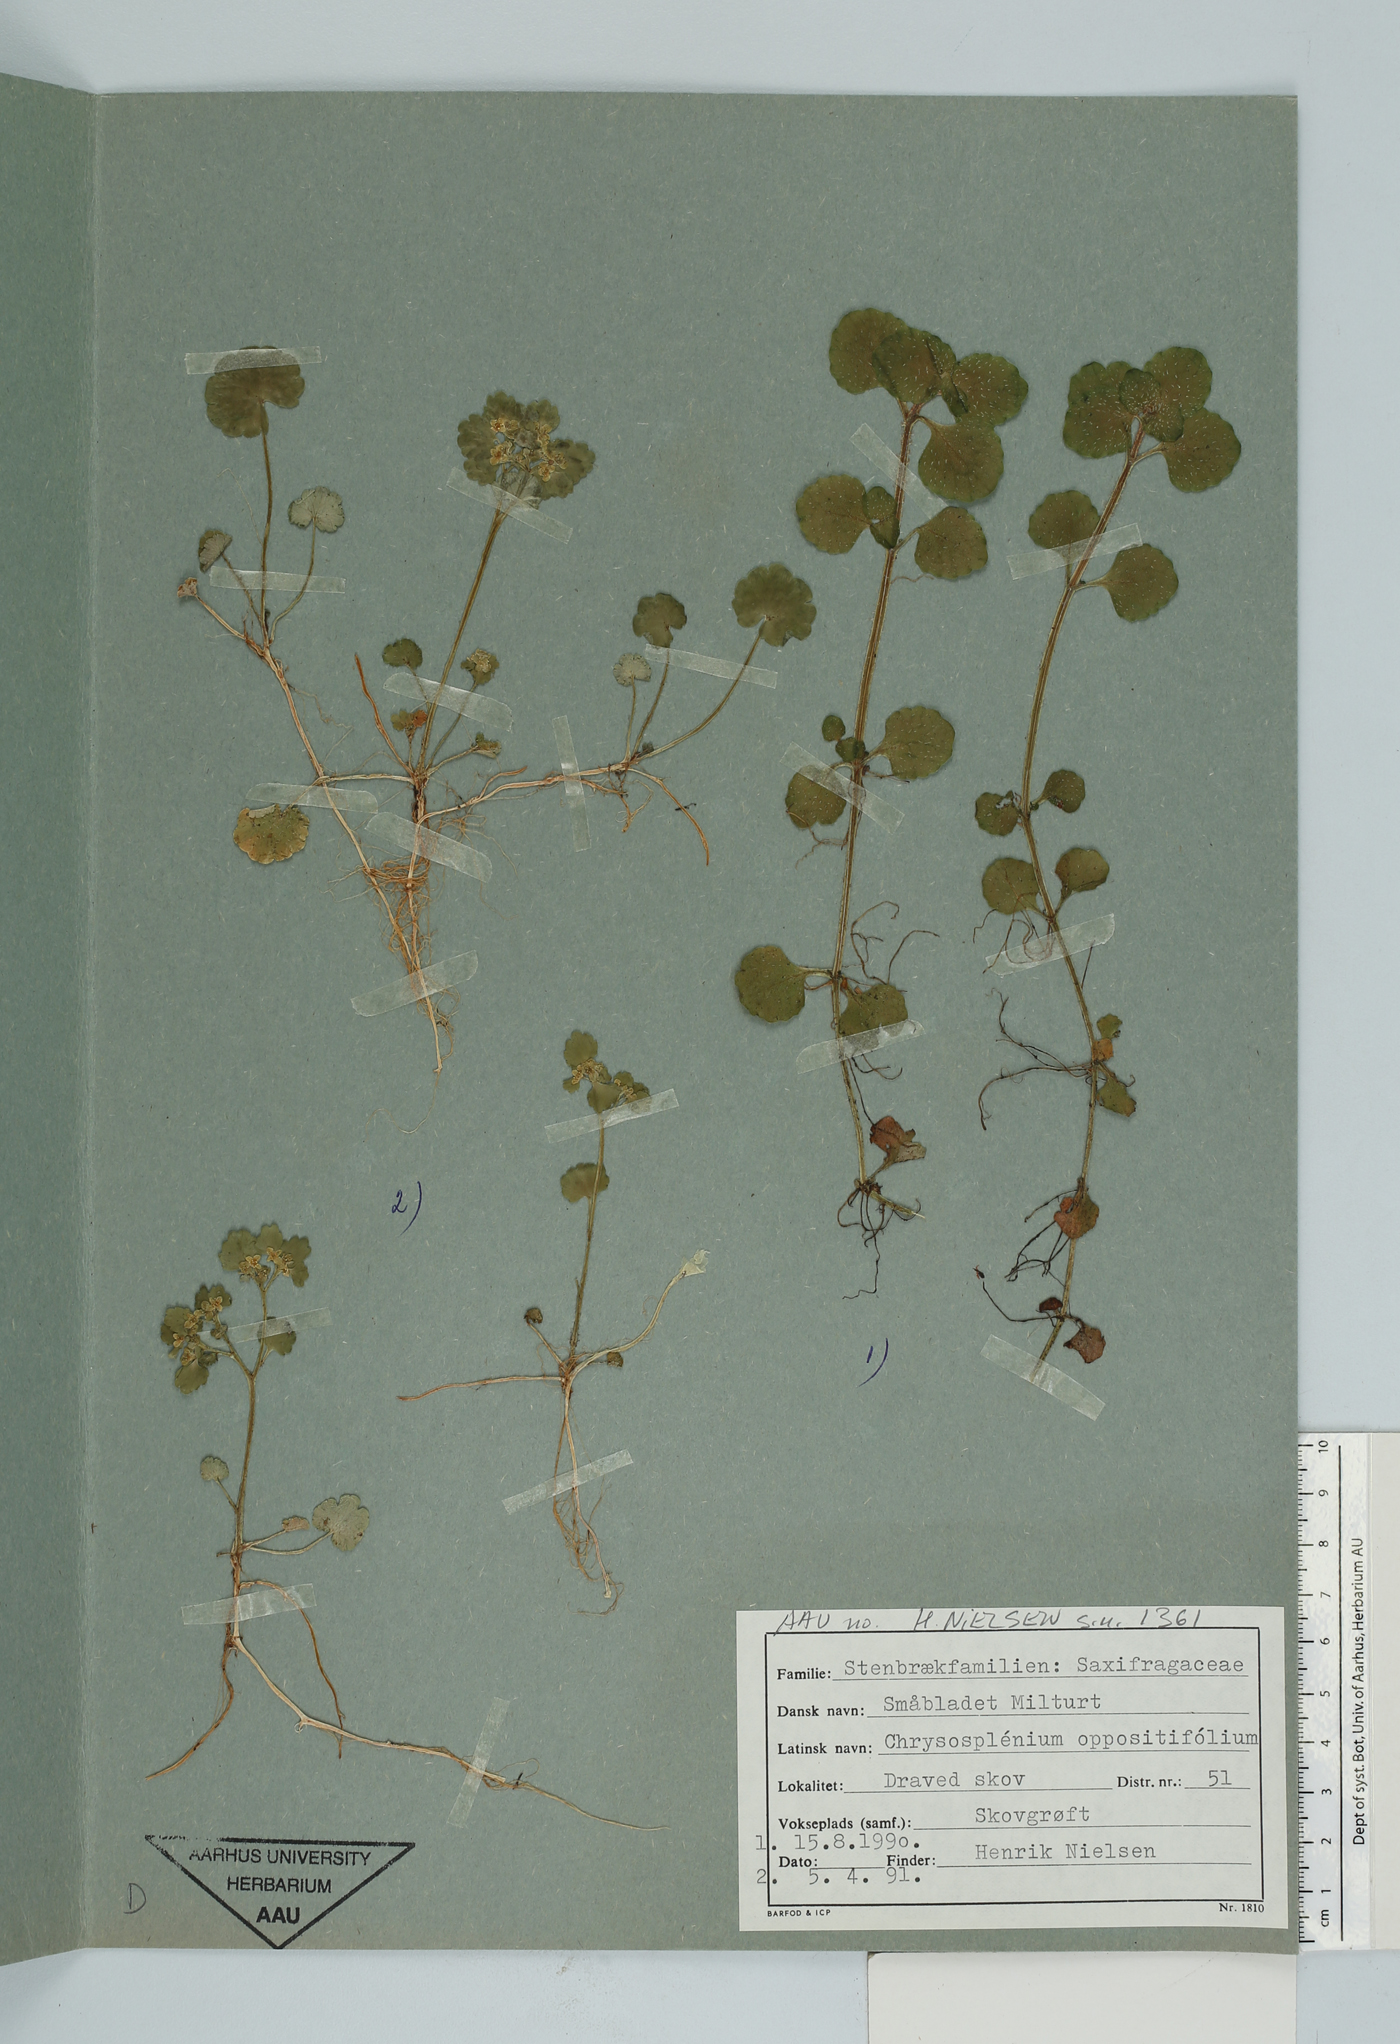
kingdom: Plantae
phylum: Tracheophyta
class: Magnoliopsida
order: Saxifragales
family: Saxifragaceae
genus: Chrysosplenium
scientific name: Chrysosplenium oppositifolium
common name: Opposite-leaved golden-saxifrage
